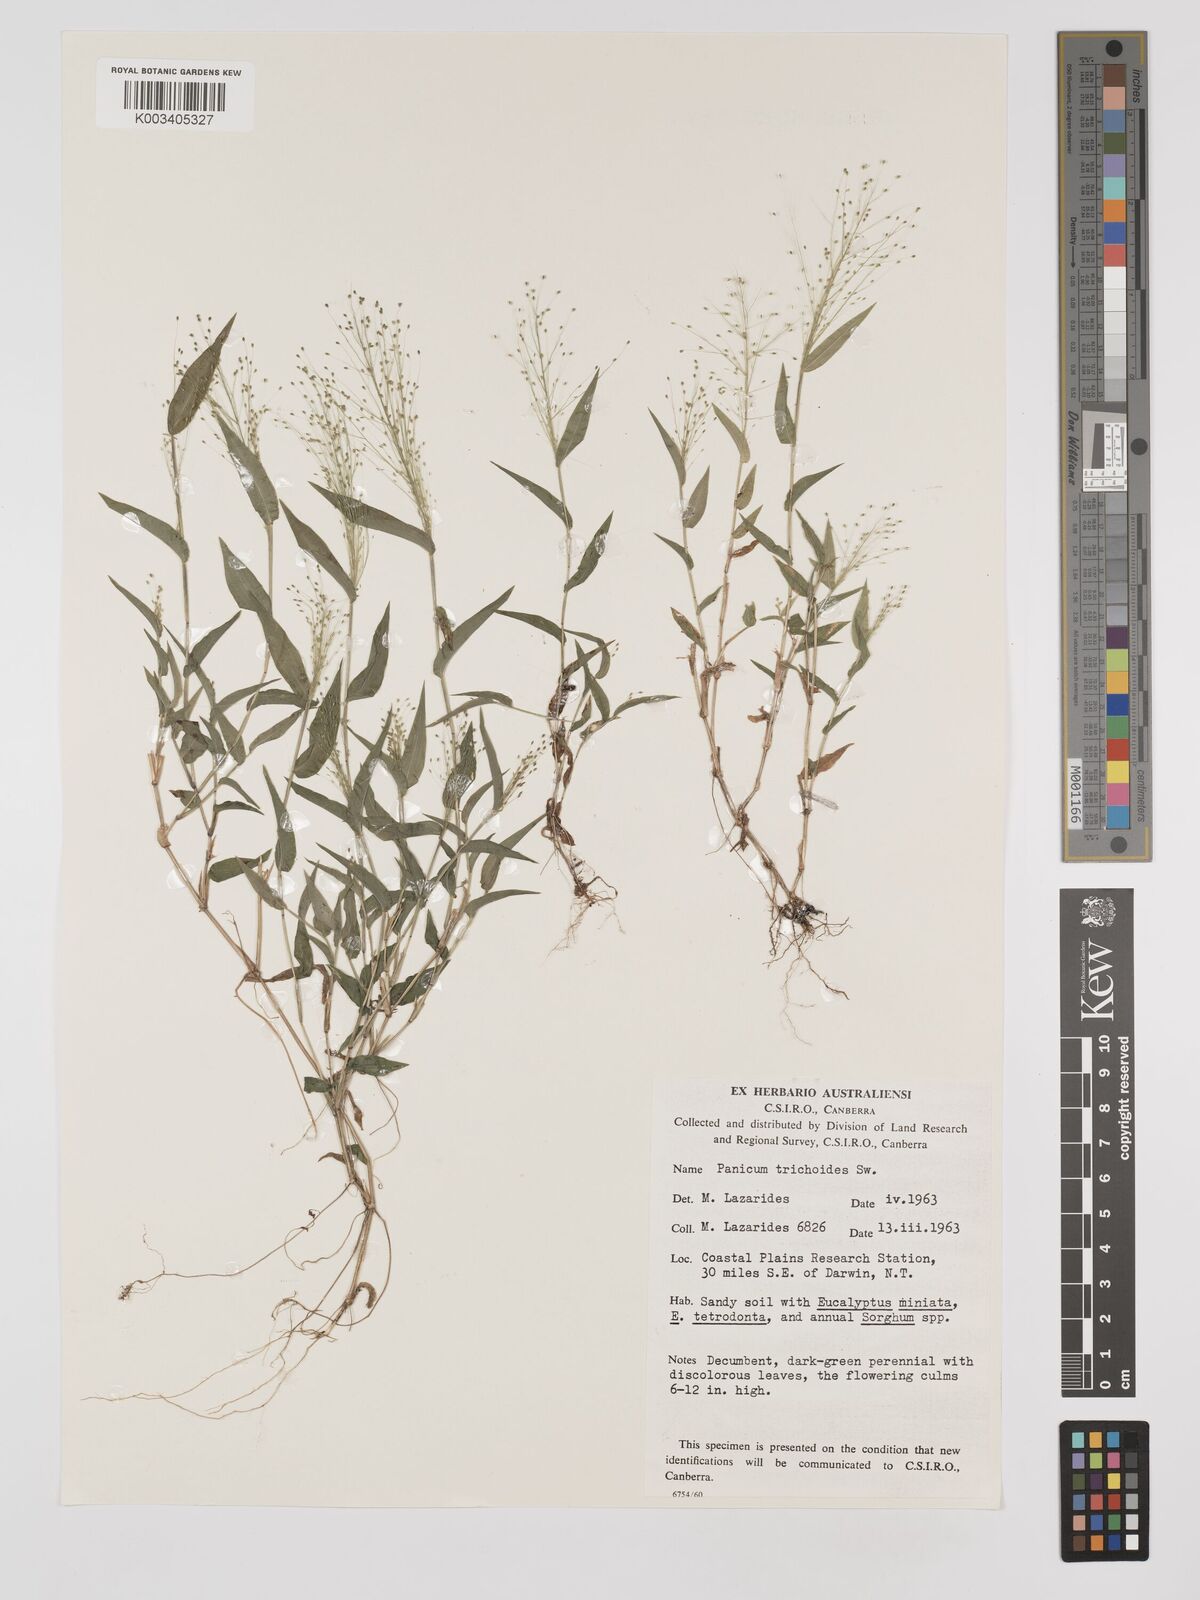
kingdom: Plantae
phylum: Tracheophyta
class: Liliopsida
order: Poales
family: Poaceae
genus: Panicum
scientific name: Panicum trichoides
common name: Tickle grass
